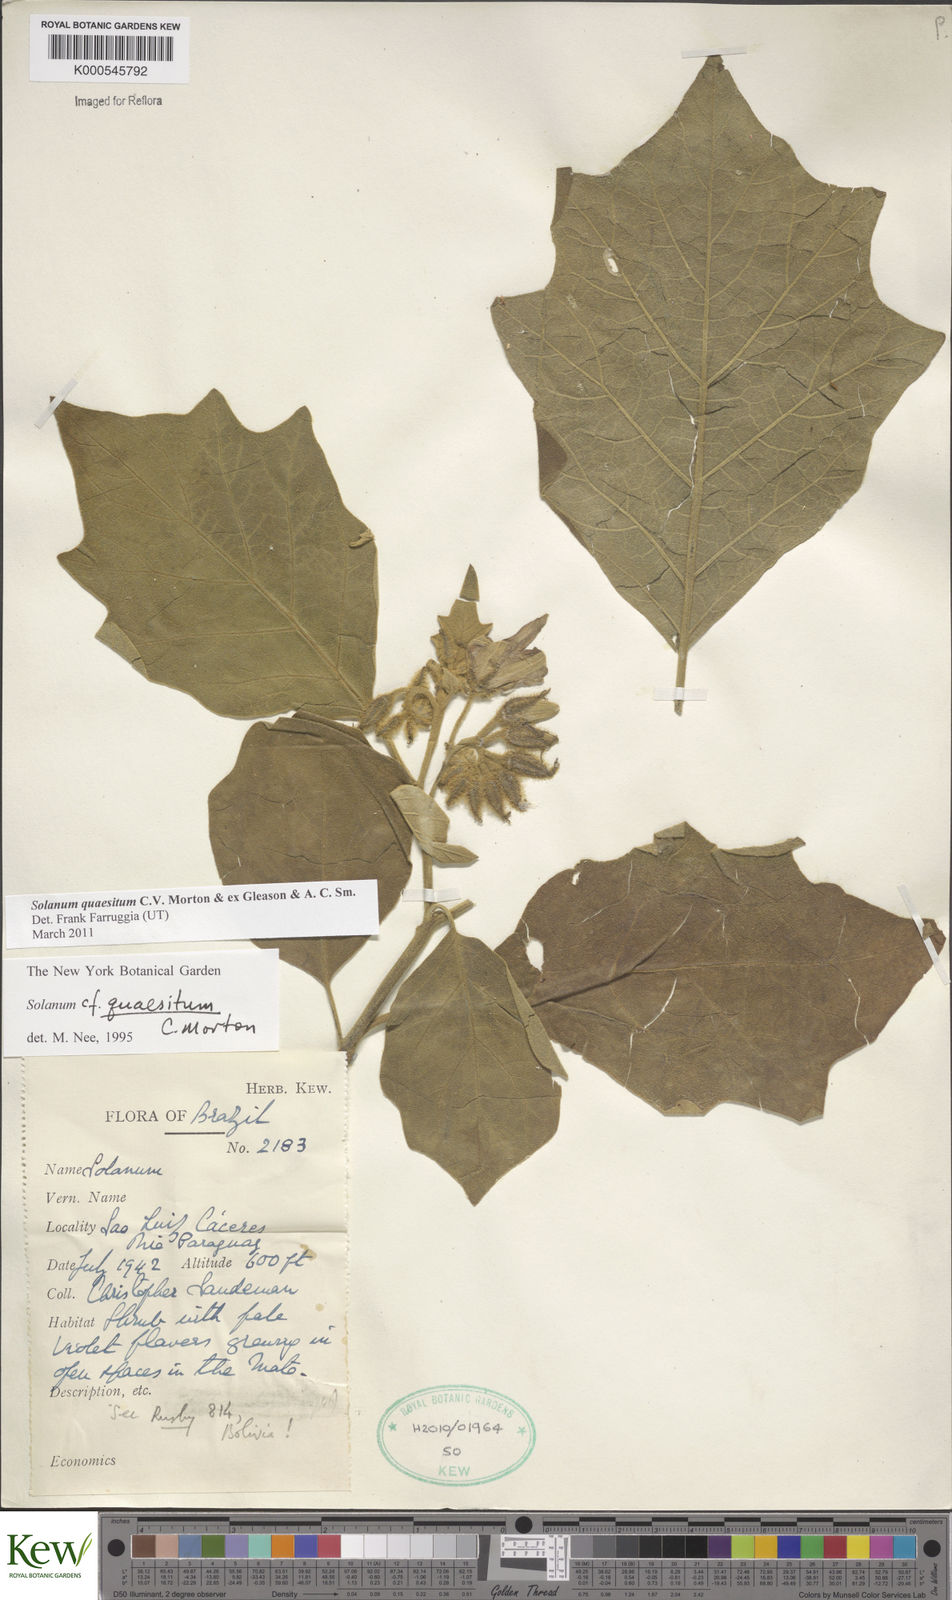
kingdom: Plantae
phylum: Tracheophyta
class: Magnoliopsida
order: Solanales
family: Solanaceae
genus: Solanum
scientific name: Solanum
